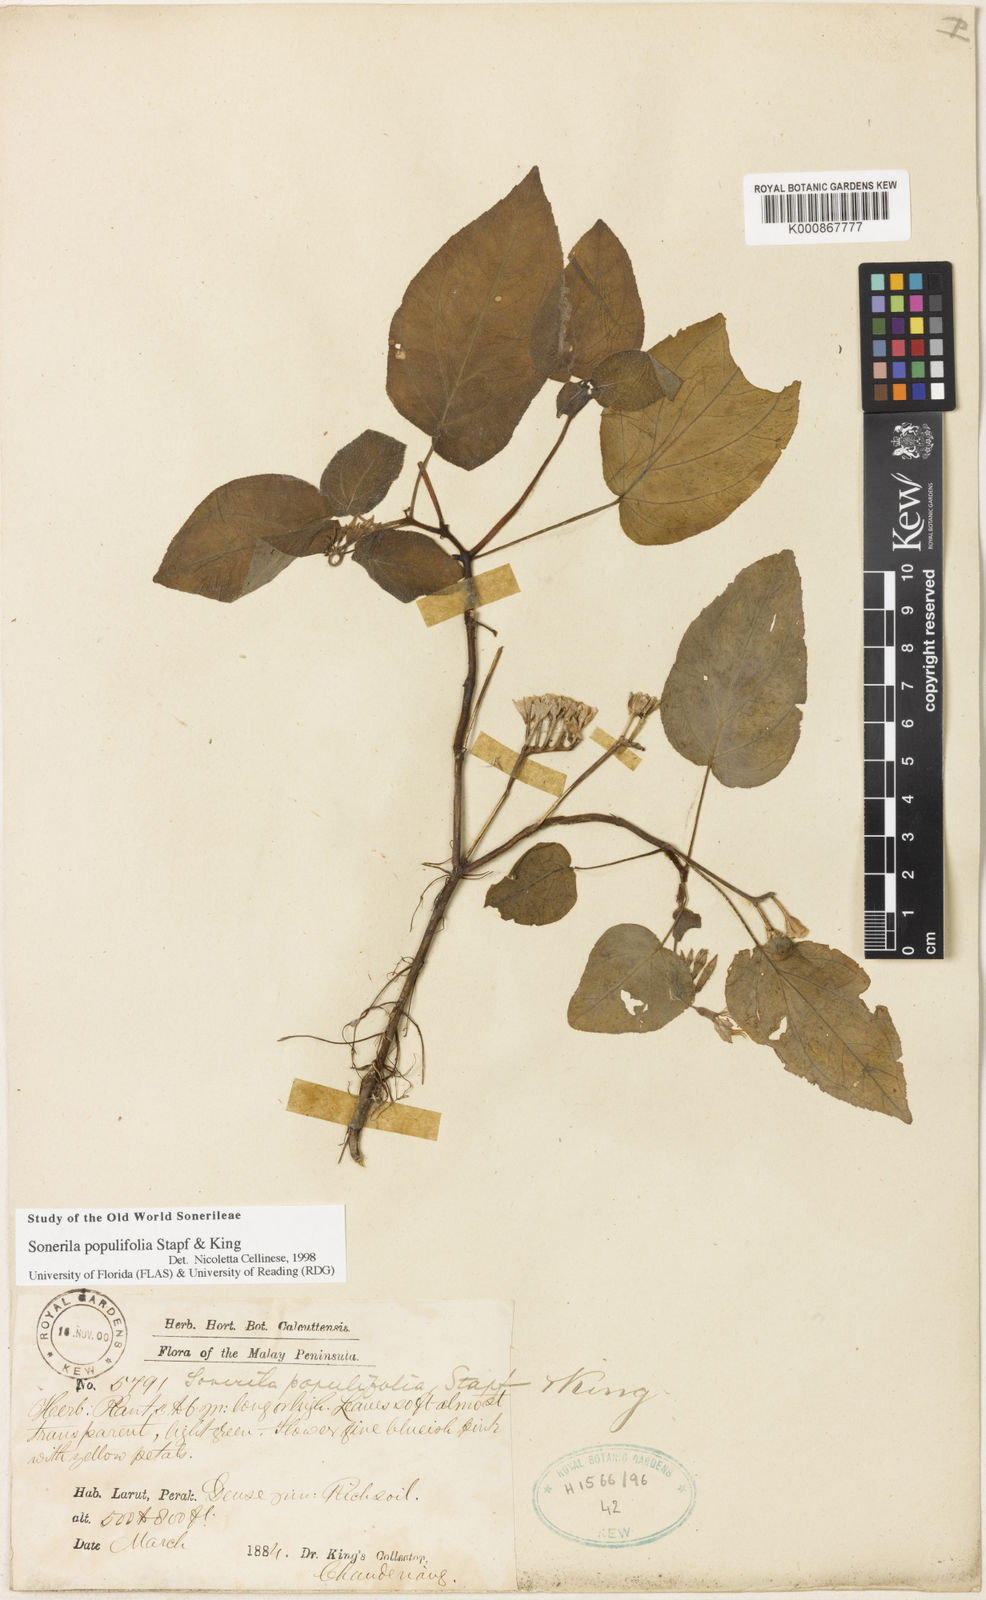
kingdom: Plantae
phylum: Tracheophyta
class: Magnoliopsida
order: Myrtales
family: Melastomataceae
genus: Sonerila
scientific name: Sonerila populifolia
